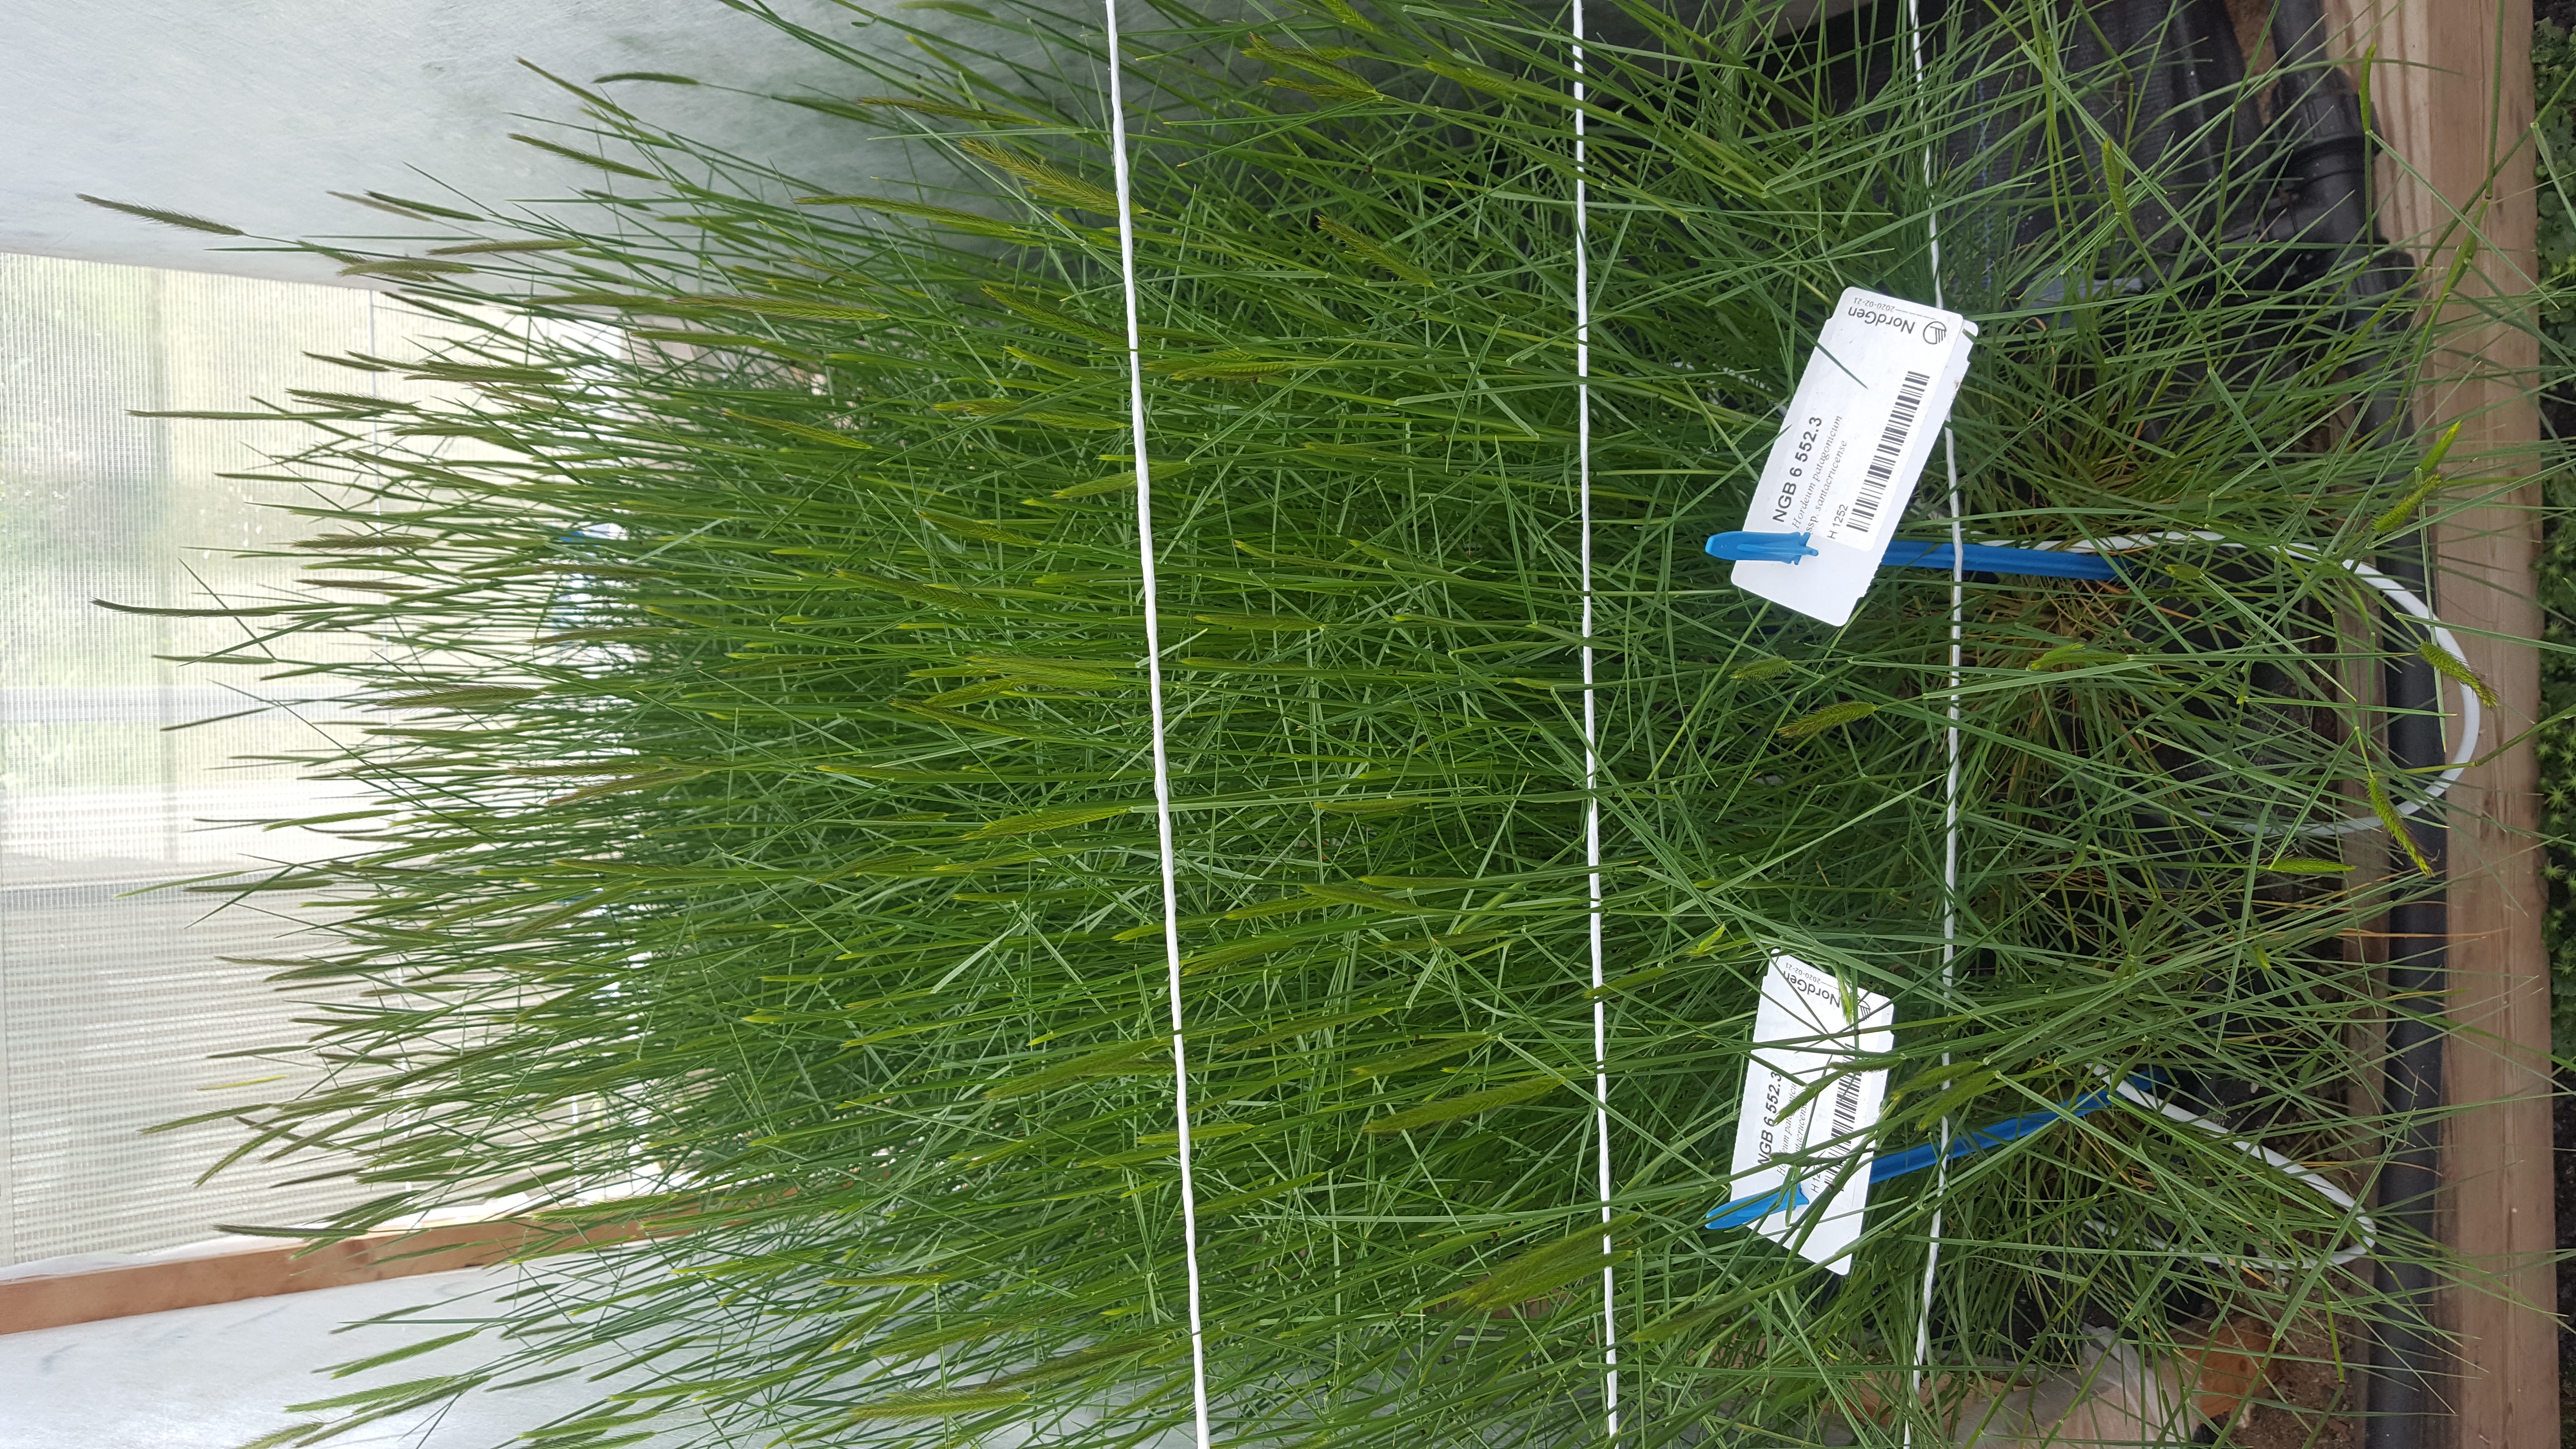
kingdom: Plantae
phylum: Tracheophyta
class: Liliopsida
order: Poales
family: Poaceae
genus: Hordeum
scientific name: Hordeum patagonicum
